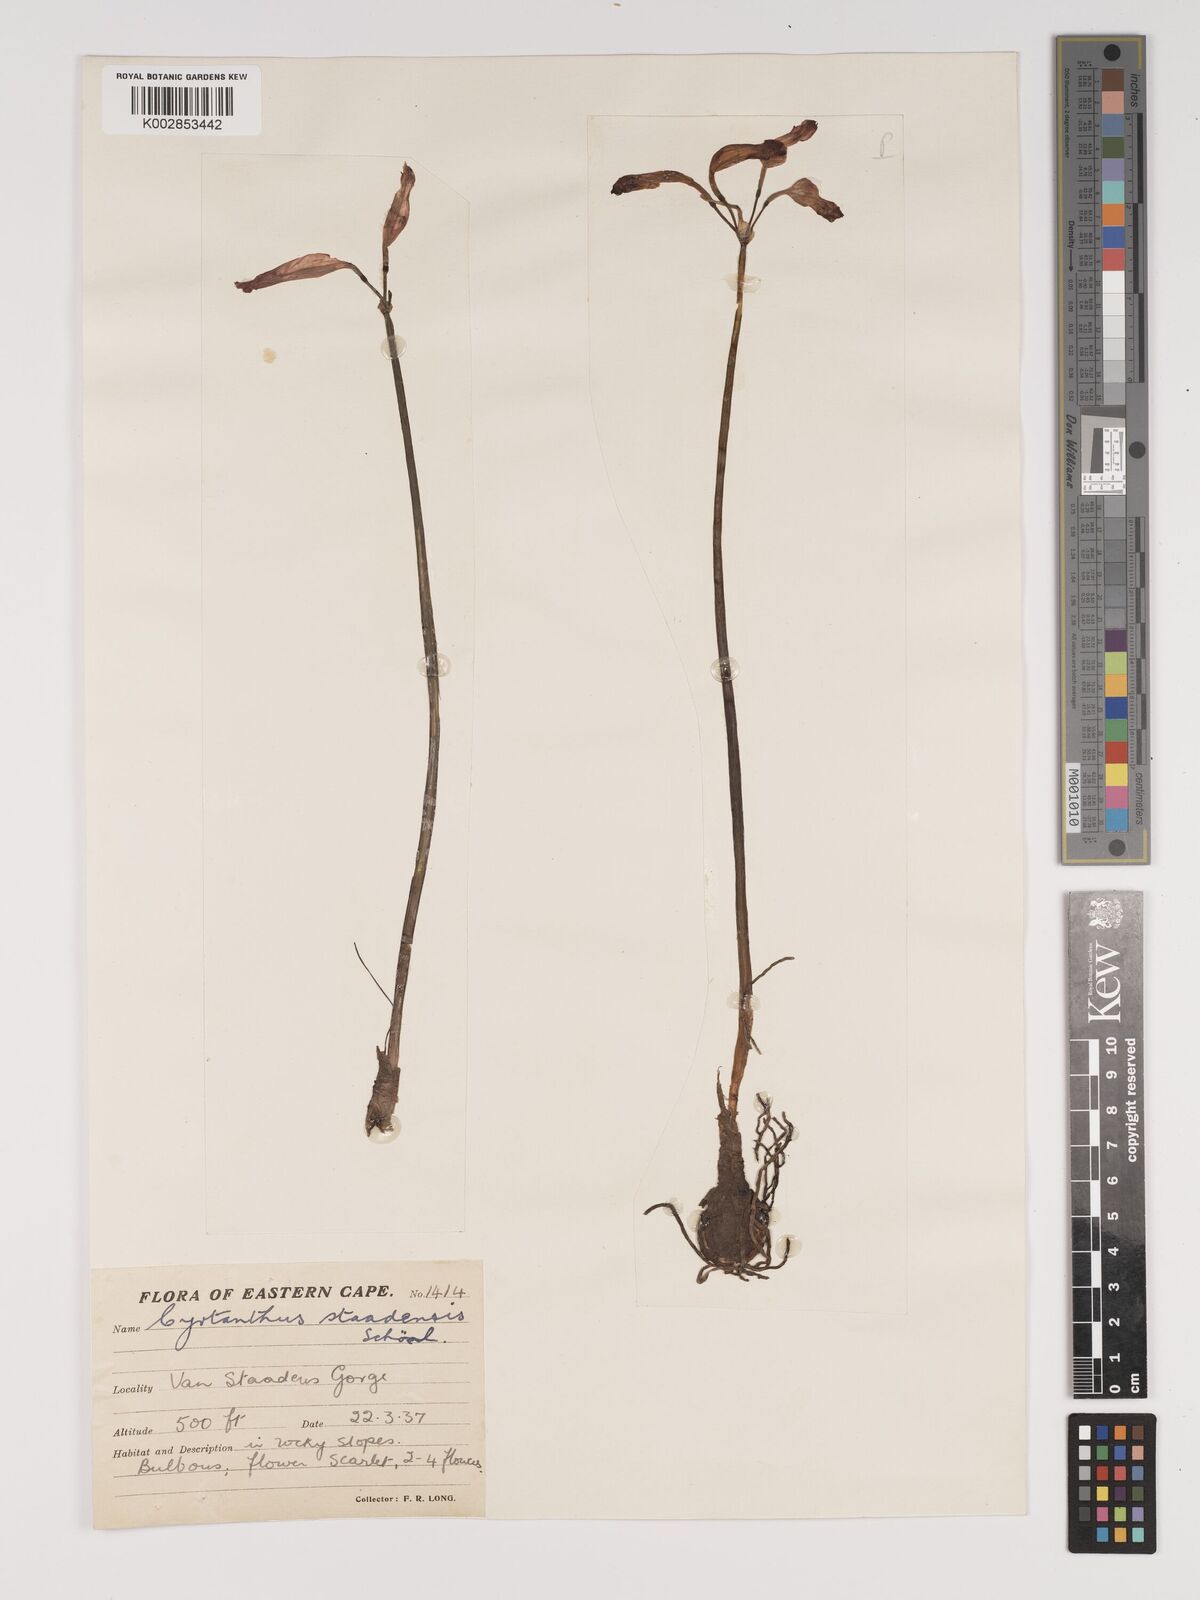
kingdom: Plantae
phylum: Tracheophyta
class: Liliopsida
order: Asparagales
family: Amaryllidaceae
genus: Cyrtanthus
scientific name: Cyrtanthus staadensis
